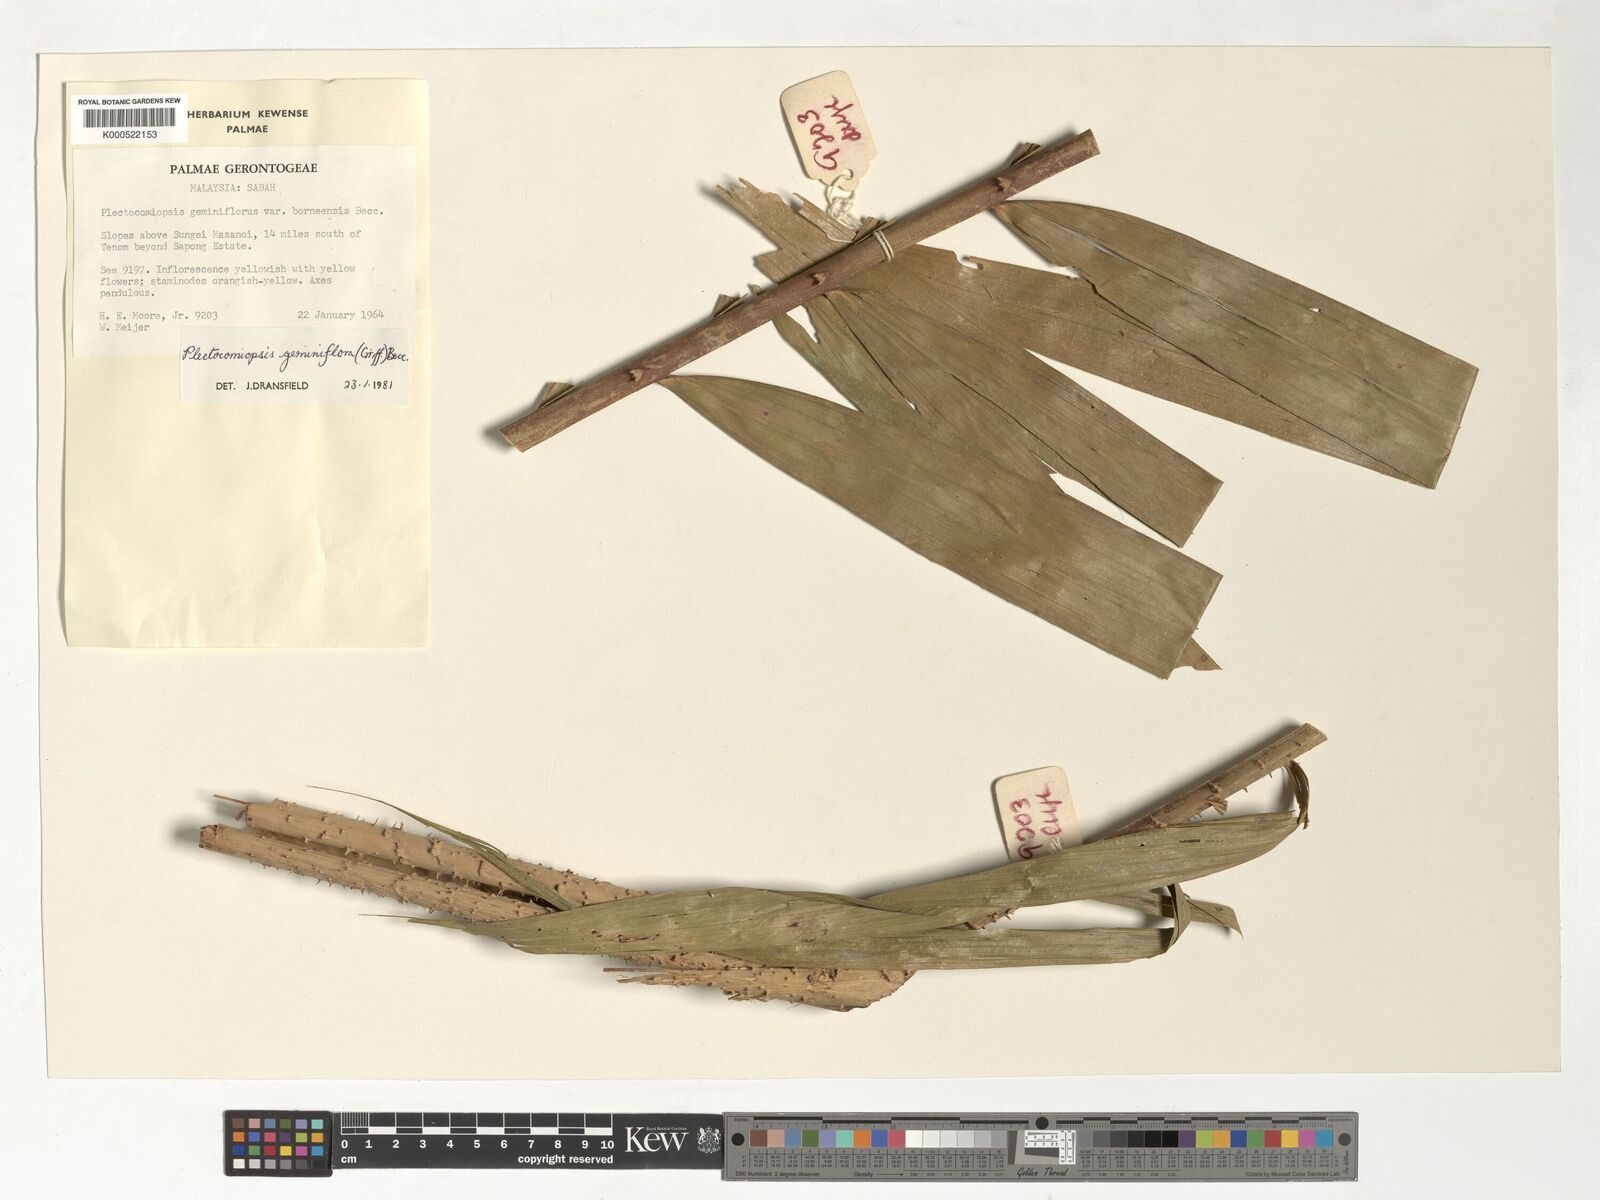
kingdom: Plantae
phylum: Tracheophyta
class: Liliopsida
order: Arecales
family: Arecaceae
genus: Plectocomiopsis
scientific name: Plectocomiopsis geminiflora
